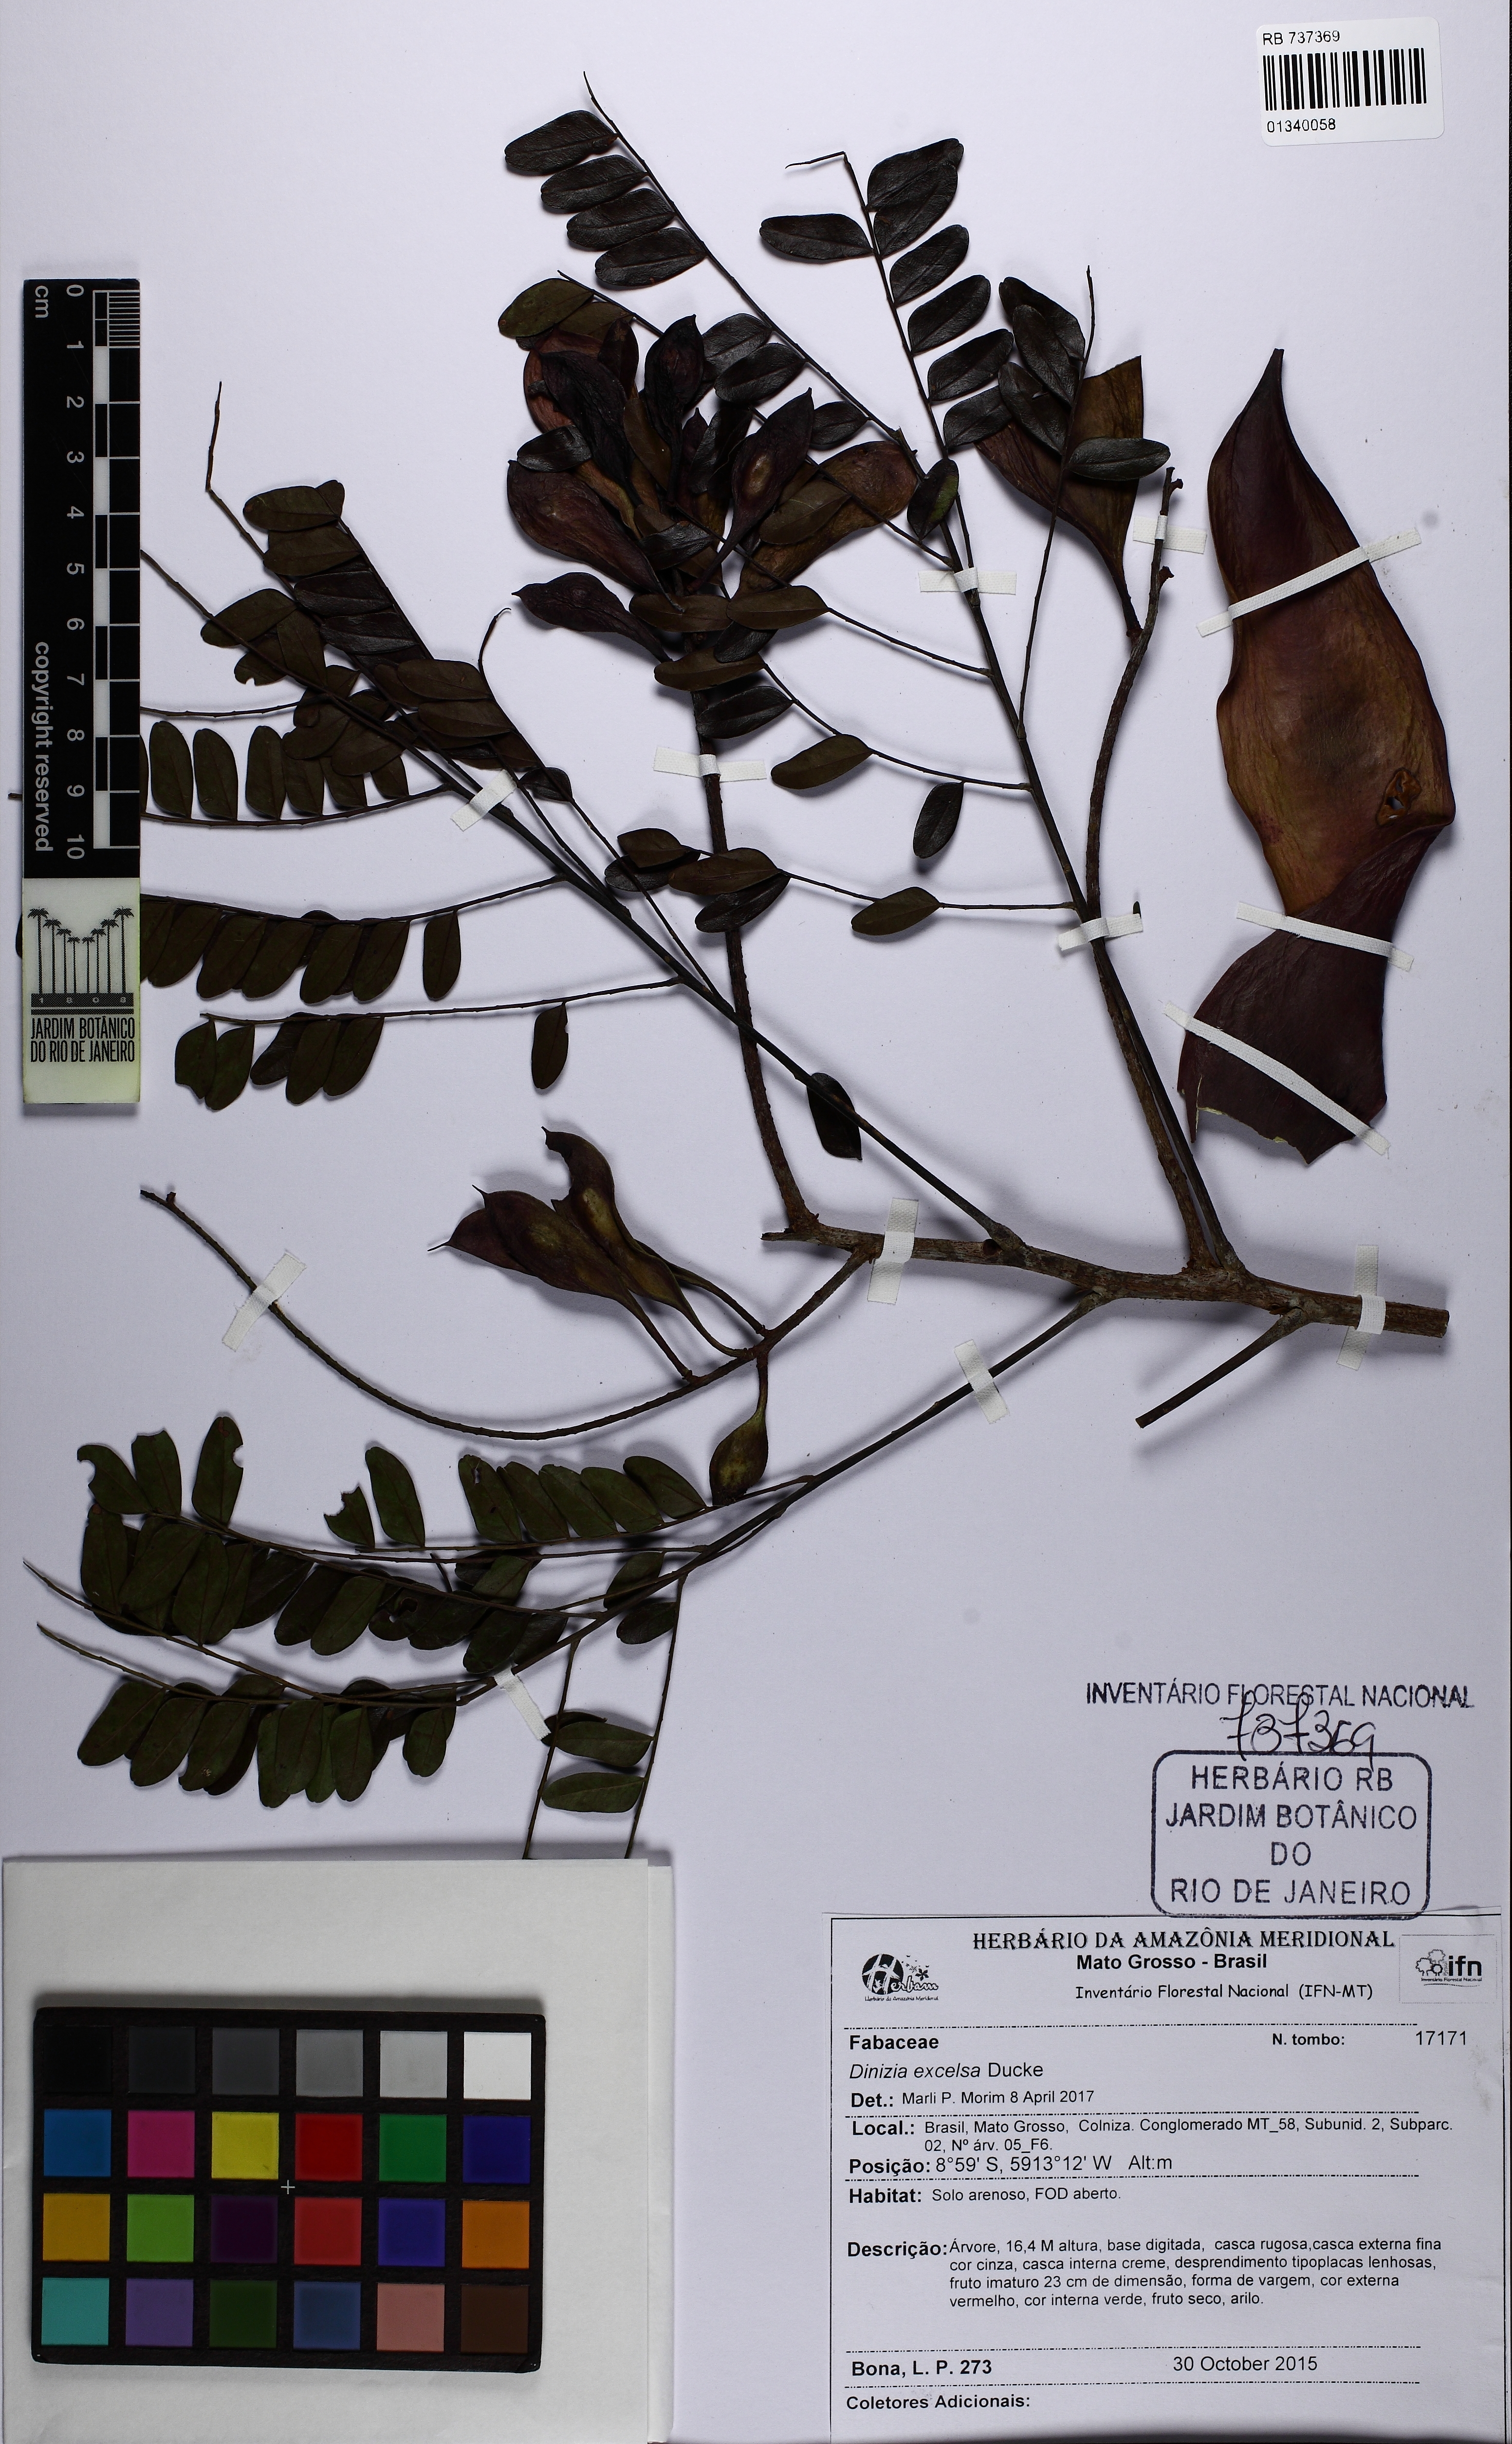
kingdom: Plantae
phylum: Tracheophyta
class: Magnoliopsida
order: Fabales
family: Fabaceae
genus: Dinizia
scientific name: Dinizia excelsa
